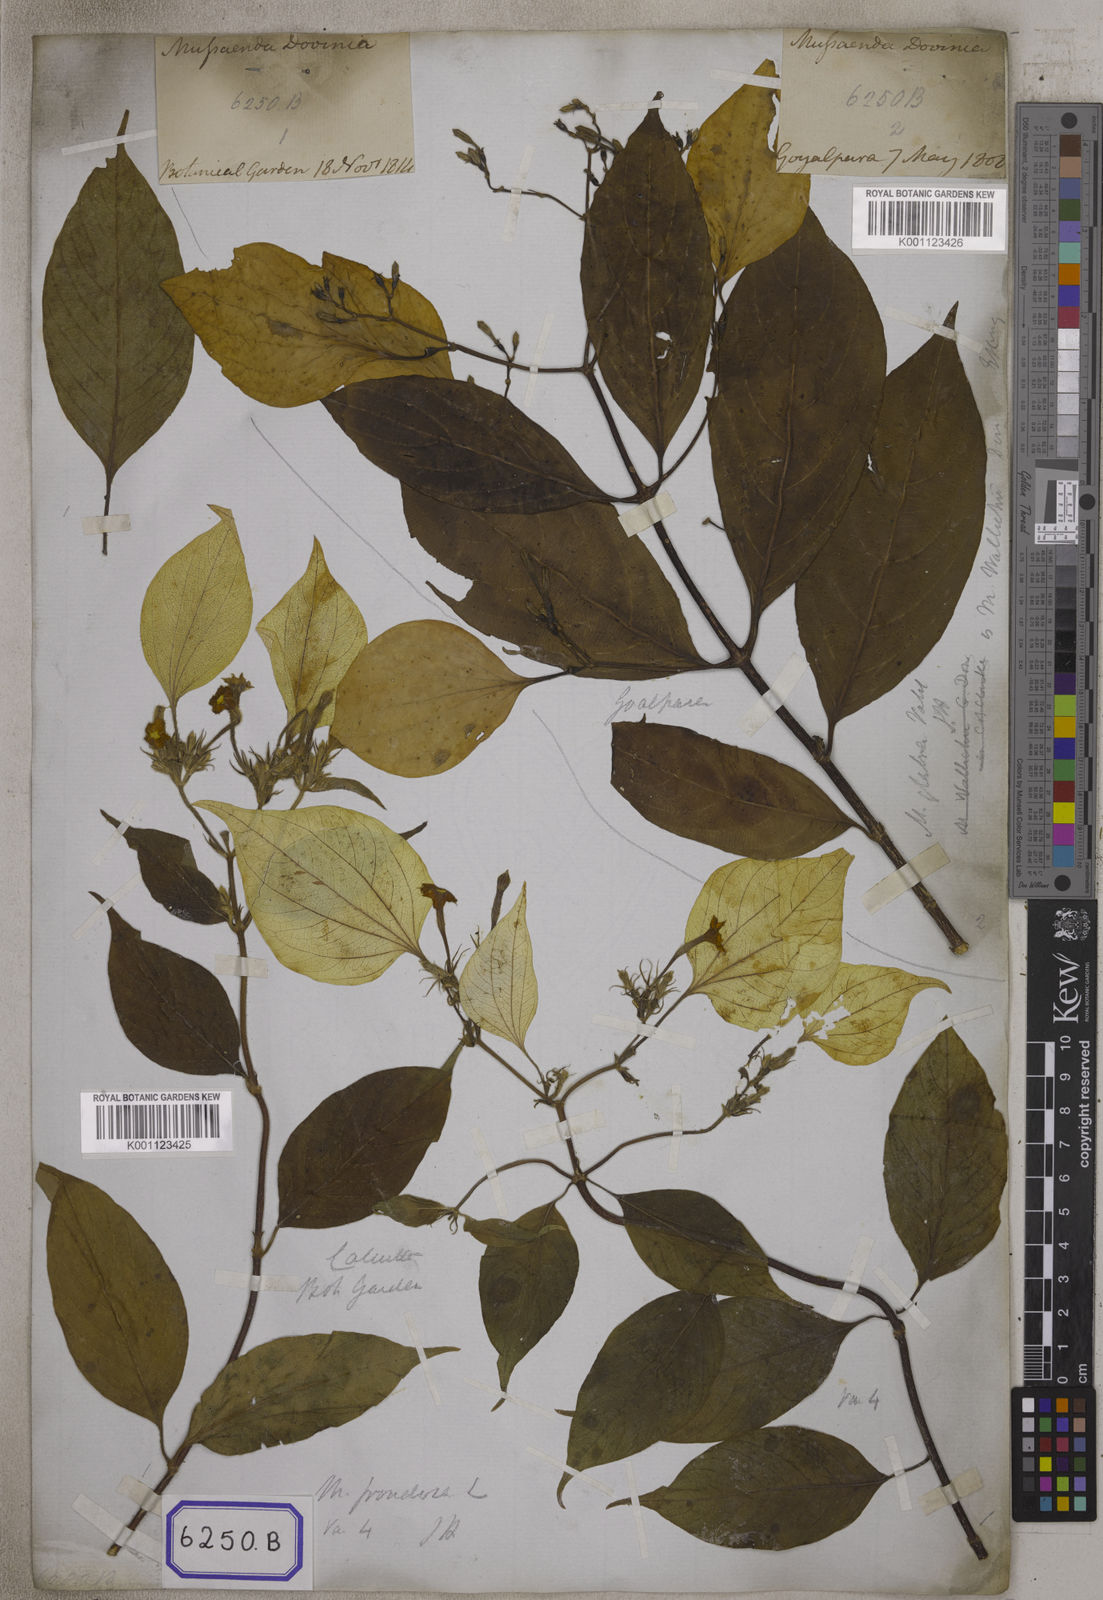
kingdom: Plantae
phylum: Tracheophyta
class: Magnoliopsida
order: Gentianales
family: Rubiaceae
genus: Mussaenda
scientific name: Mussaenda
